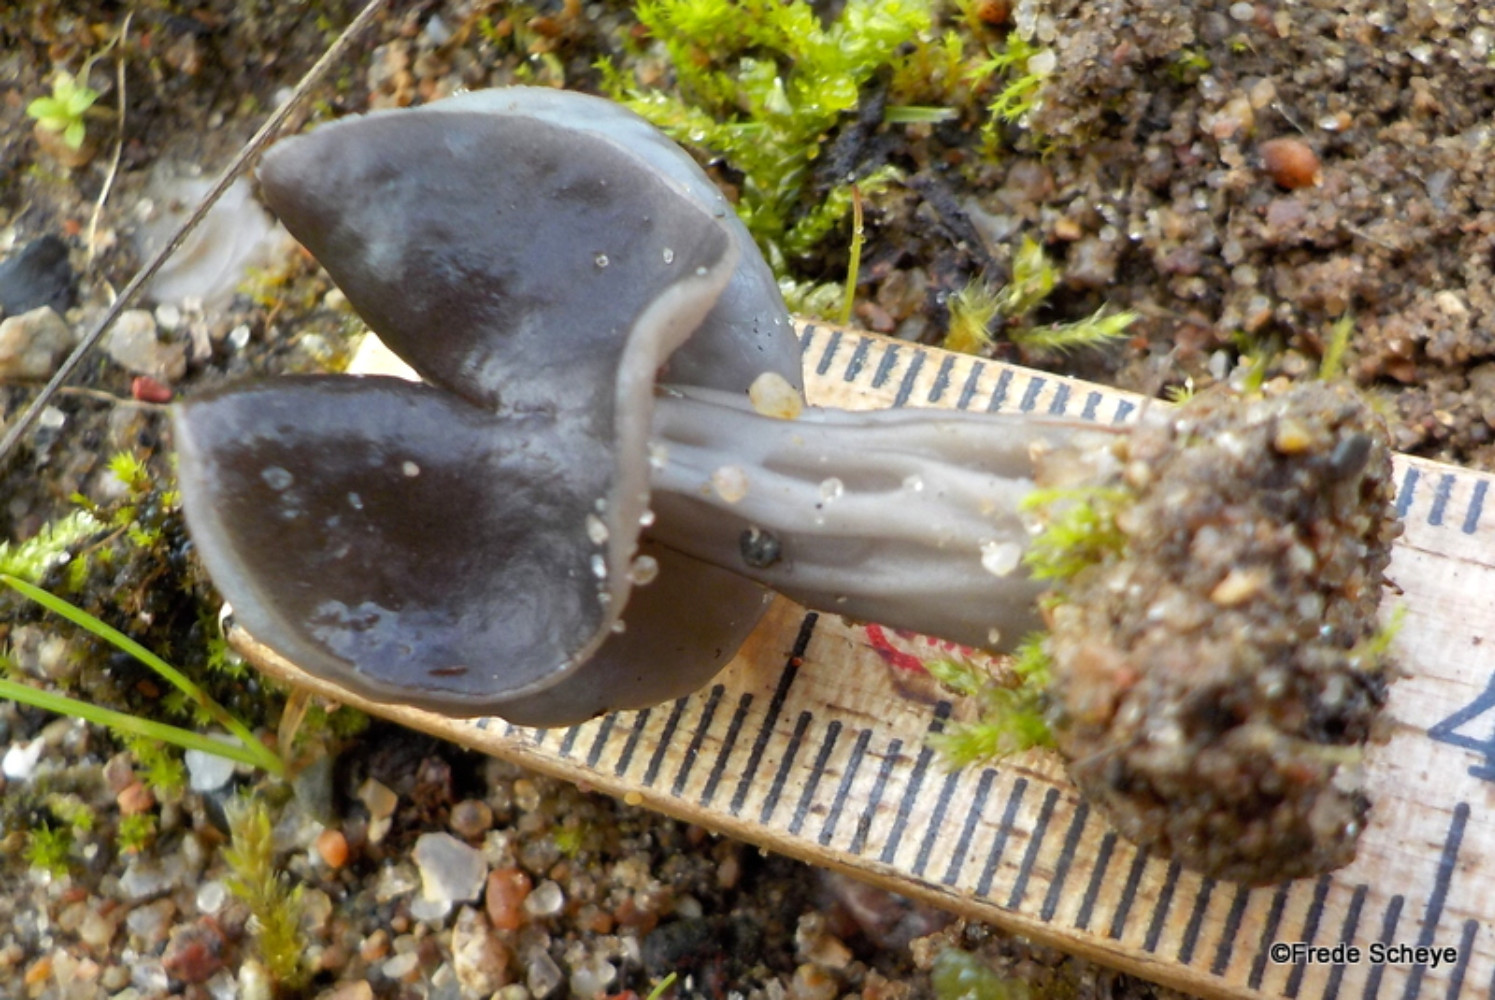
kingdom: Fungi
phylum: Ascomycota
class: Pezizomycetes
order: Pezizales
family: Helvellaceae
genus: Helvella
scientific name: Helvella lacunosa
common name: grubet foldhat
